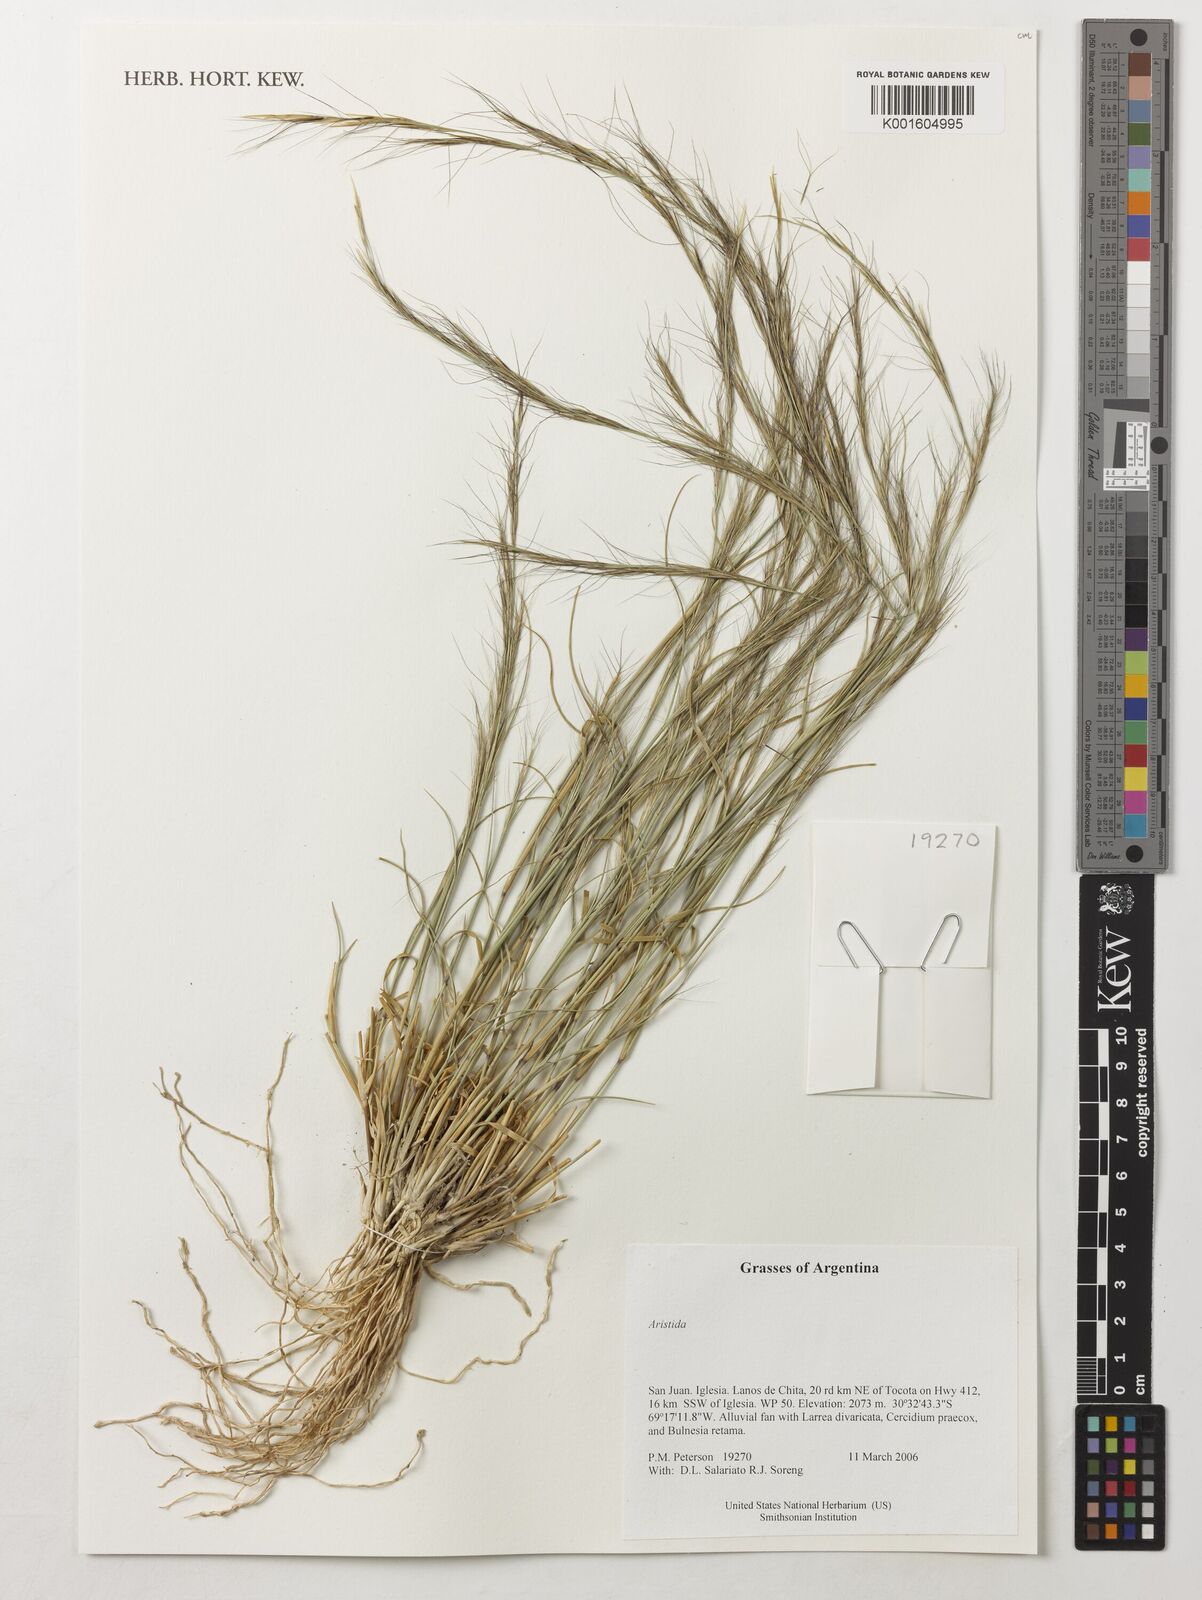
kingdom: Plantae
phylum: Tracheophyta
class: Liliopsida
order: Poales
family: Poaceae
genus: Aristida
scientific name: Aristida
